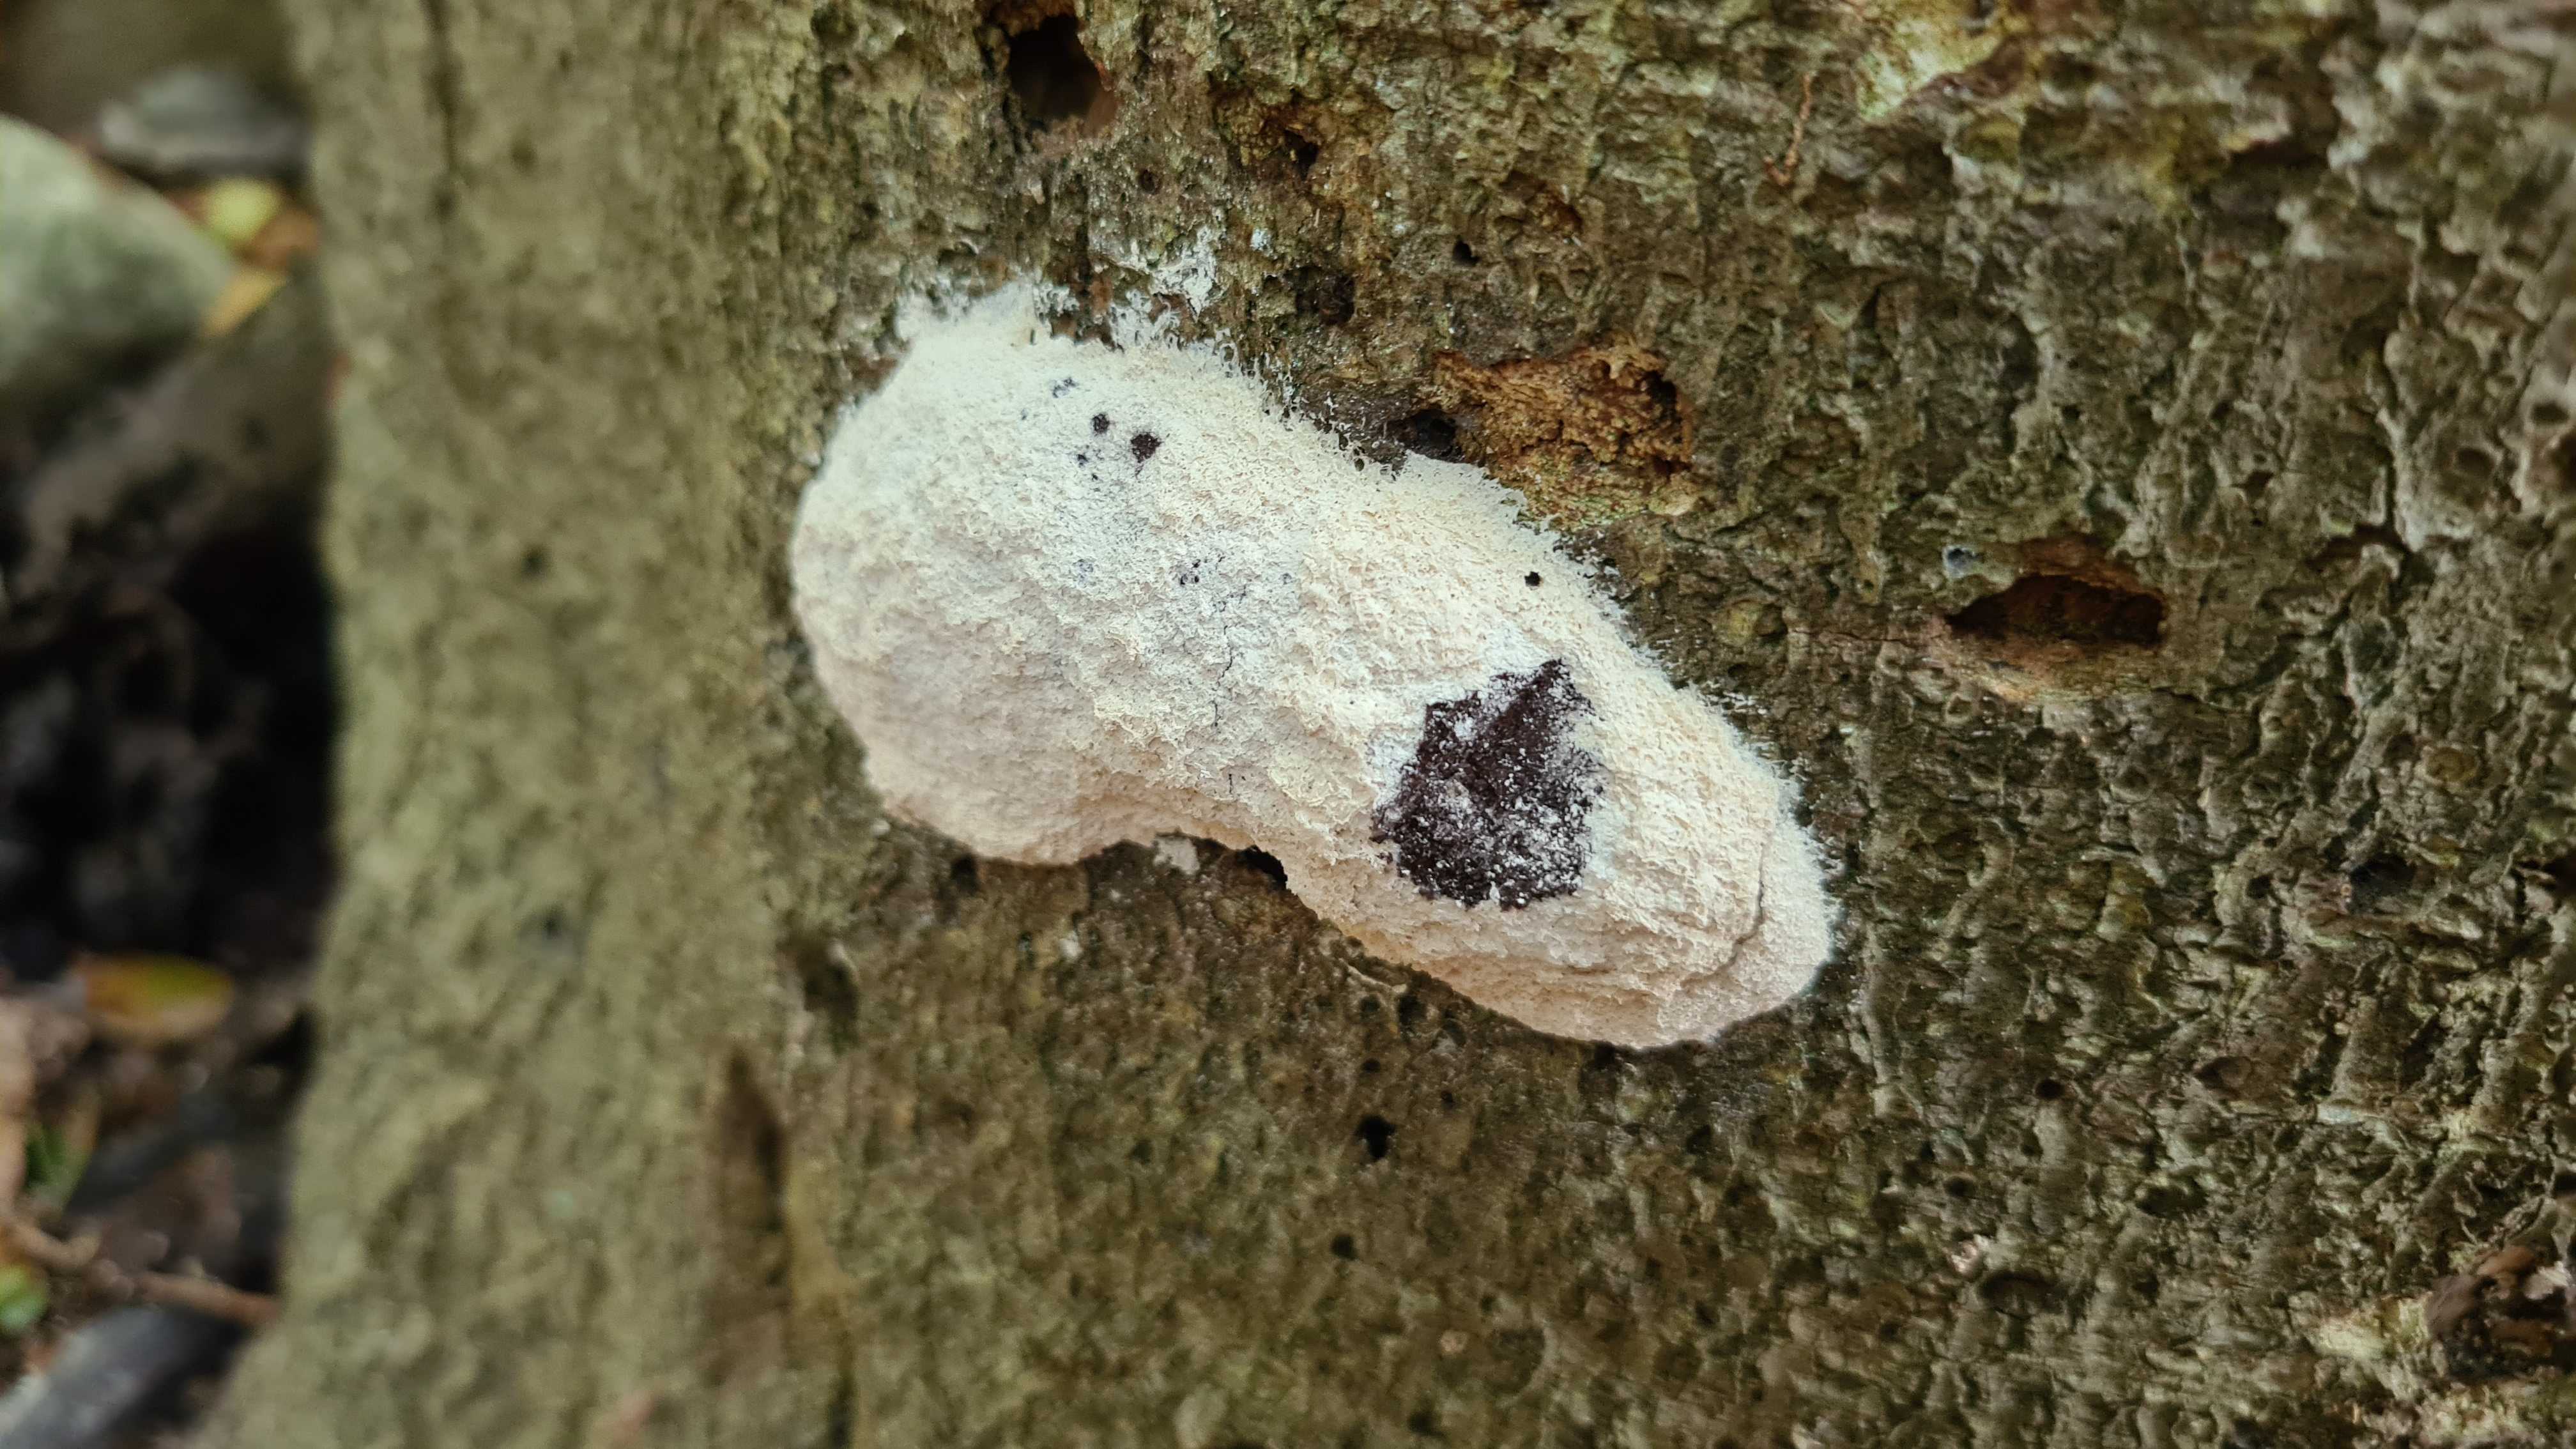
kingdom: Protozoa
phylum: Mycetozoa
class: Myxomycetes
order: Cribrariales
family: Tubiferaceae
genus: Reticularia
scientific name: Reticularia lycoperdon
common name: skinnende støvpude
